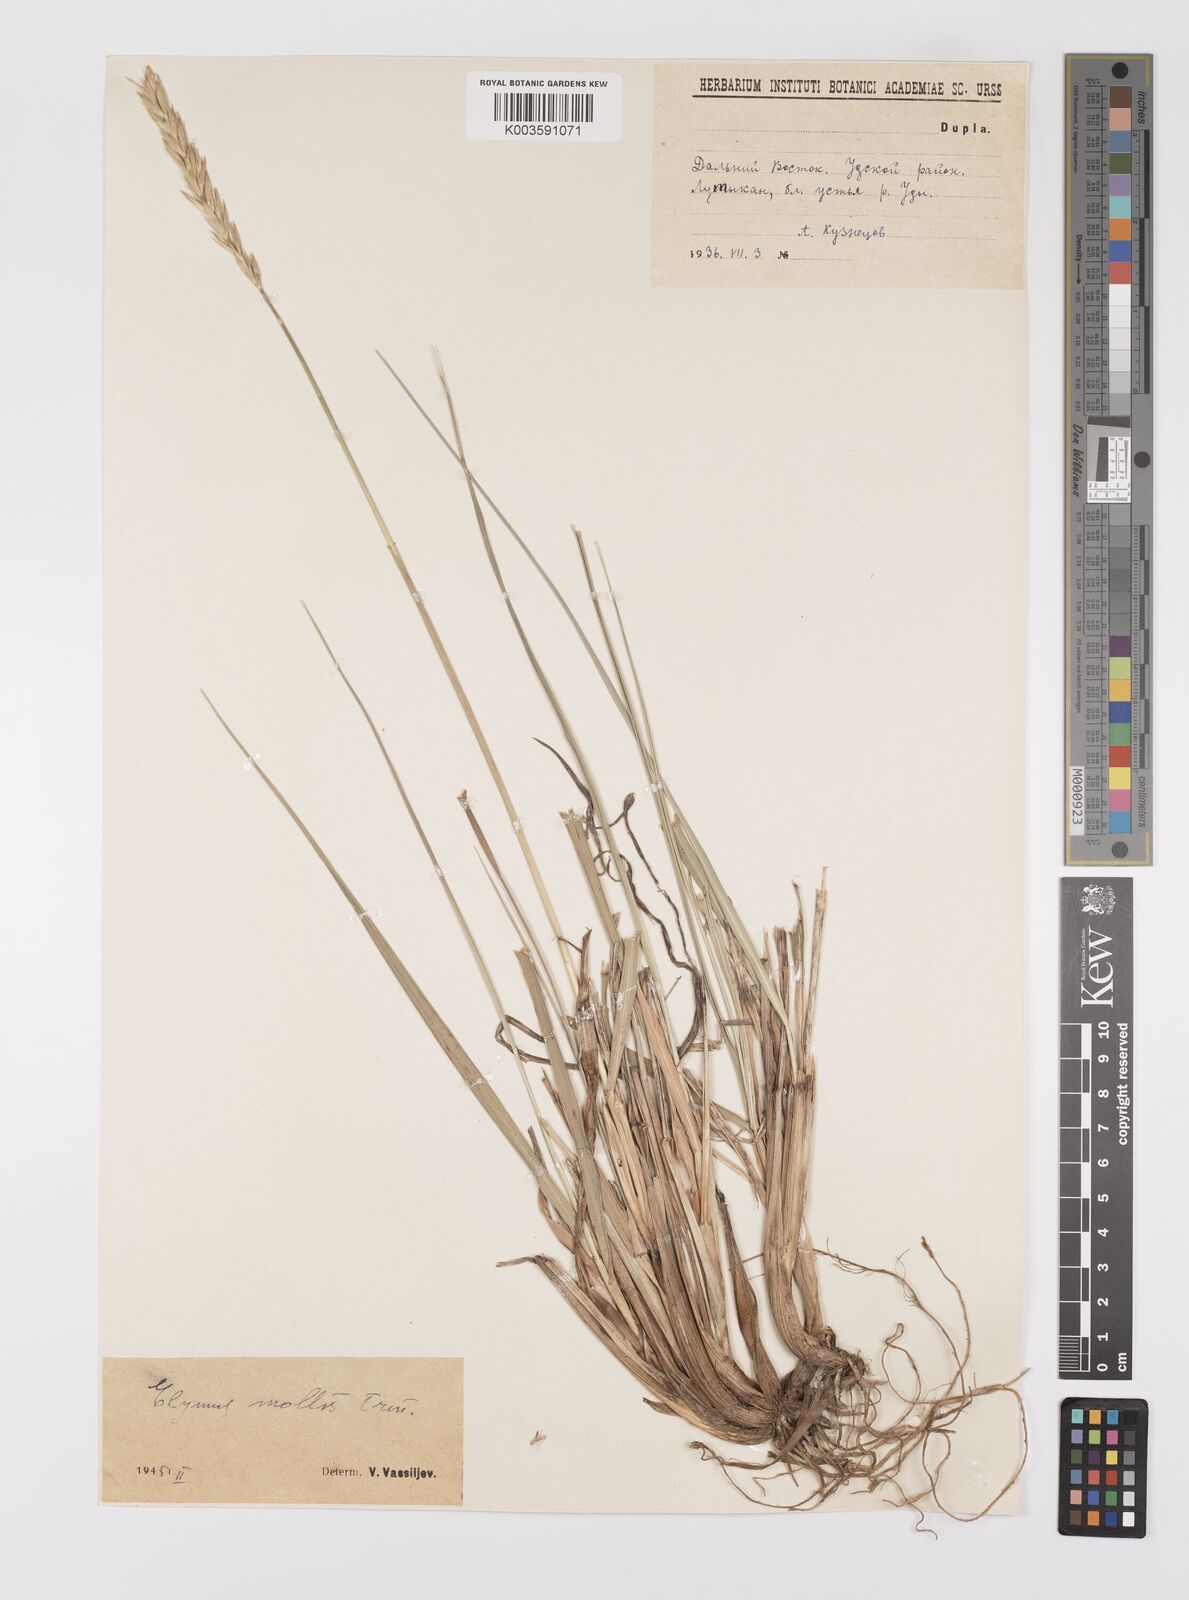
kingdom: Plantae
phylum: Tracheophyta
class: Liliopsida
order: Poales
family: Poaceae
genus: Leymus
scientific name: Leymus mollis
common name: American dune grass
